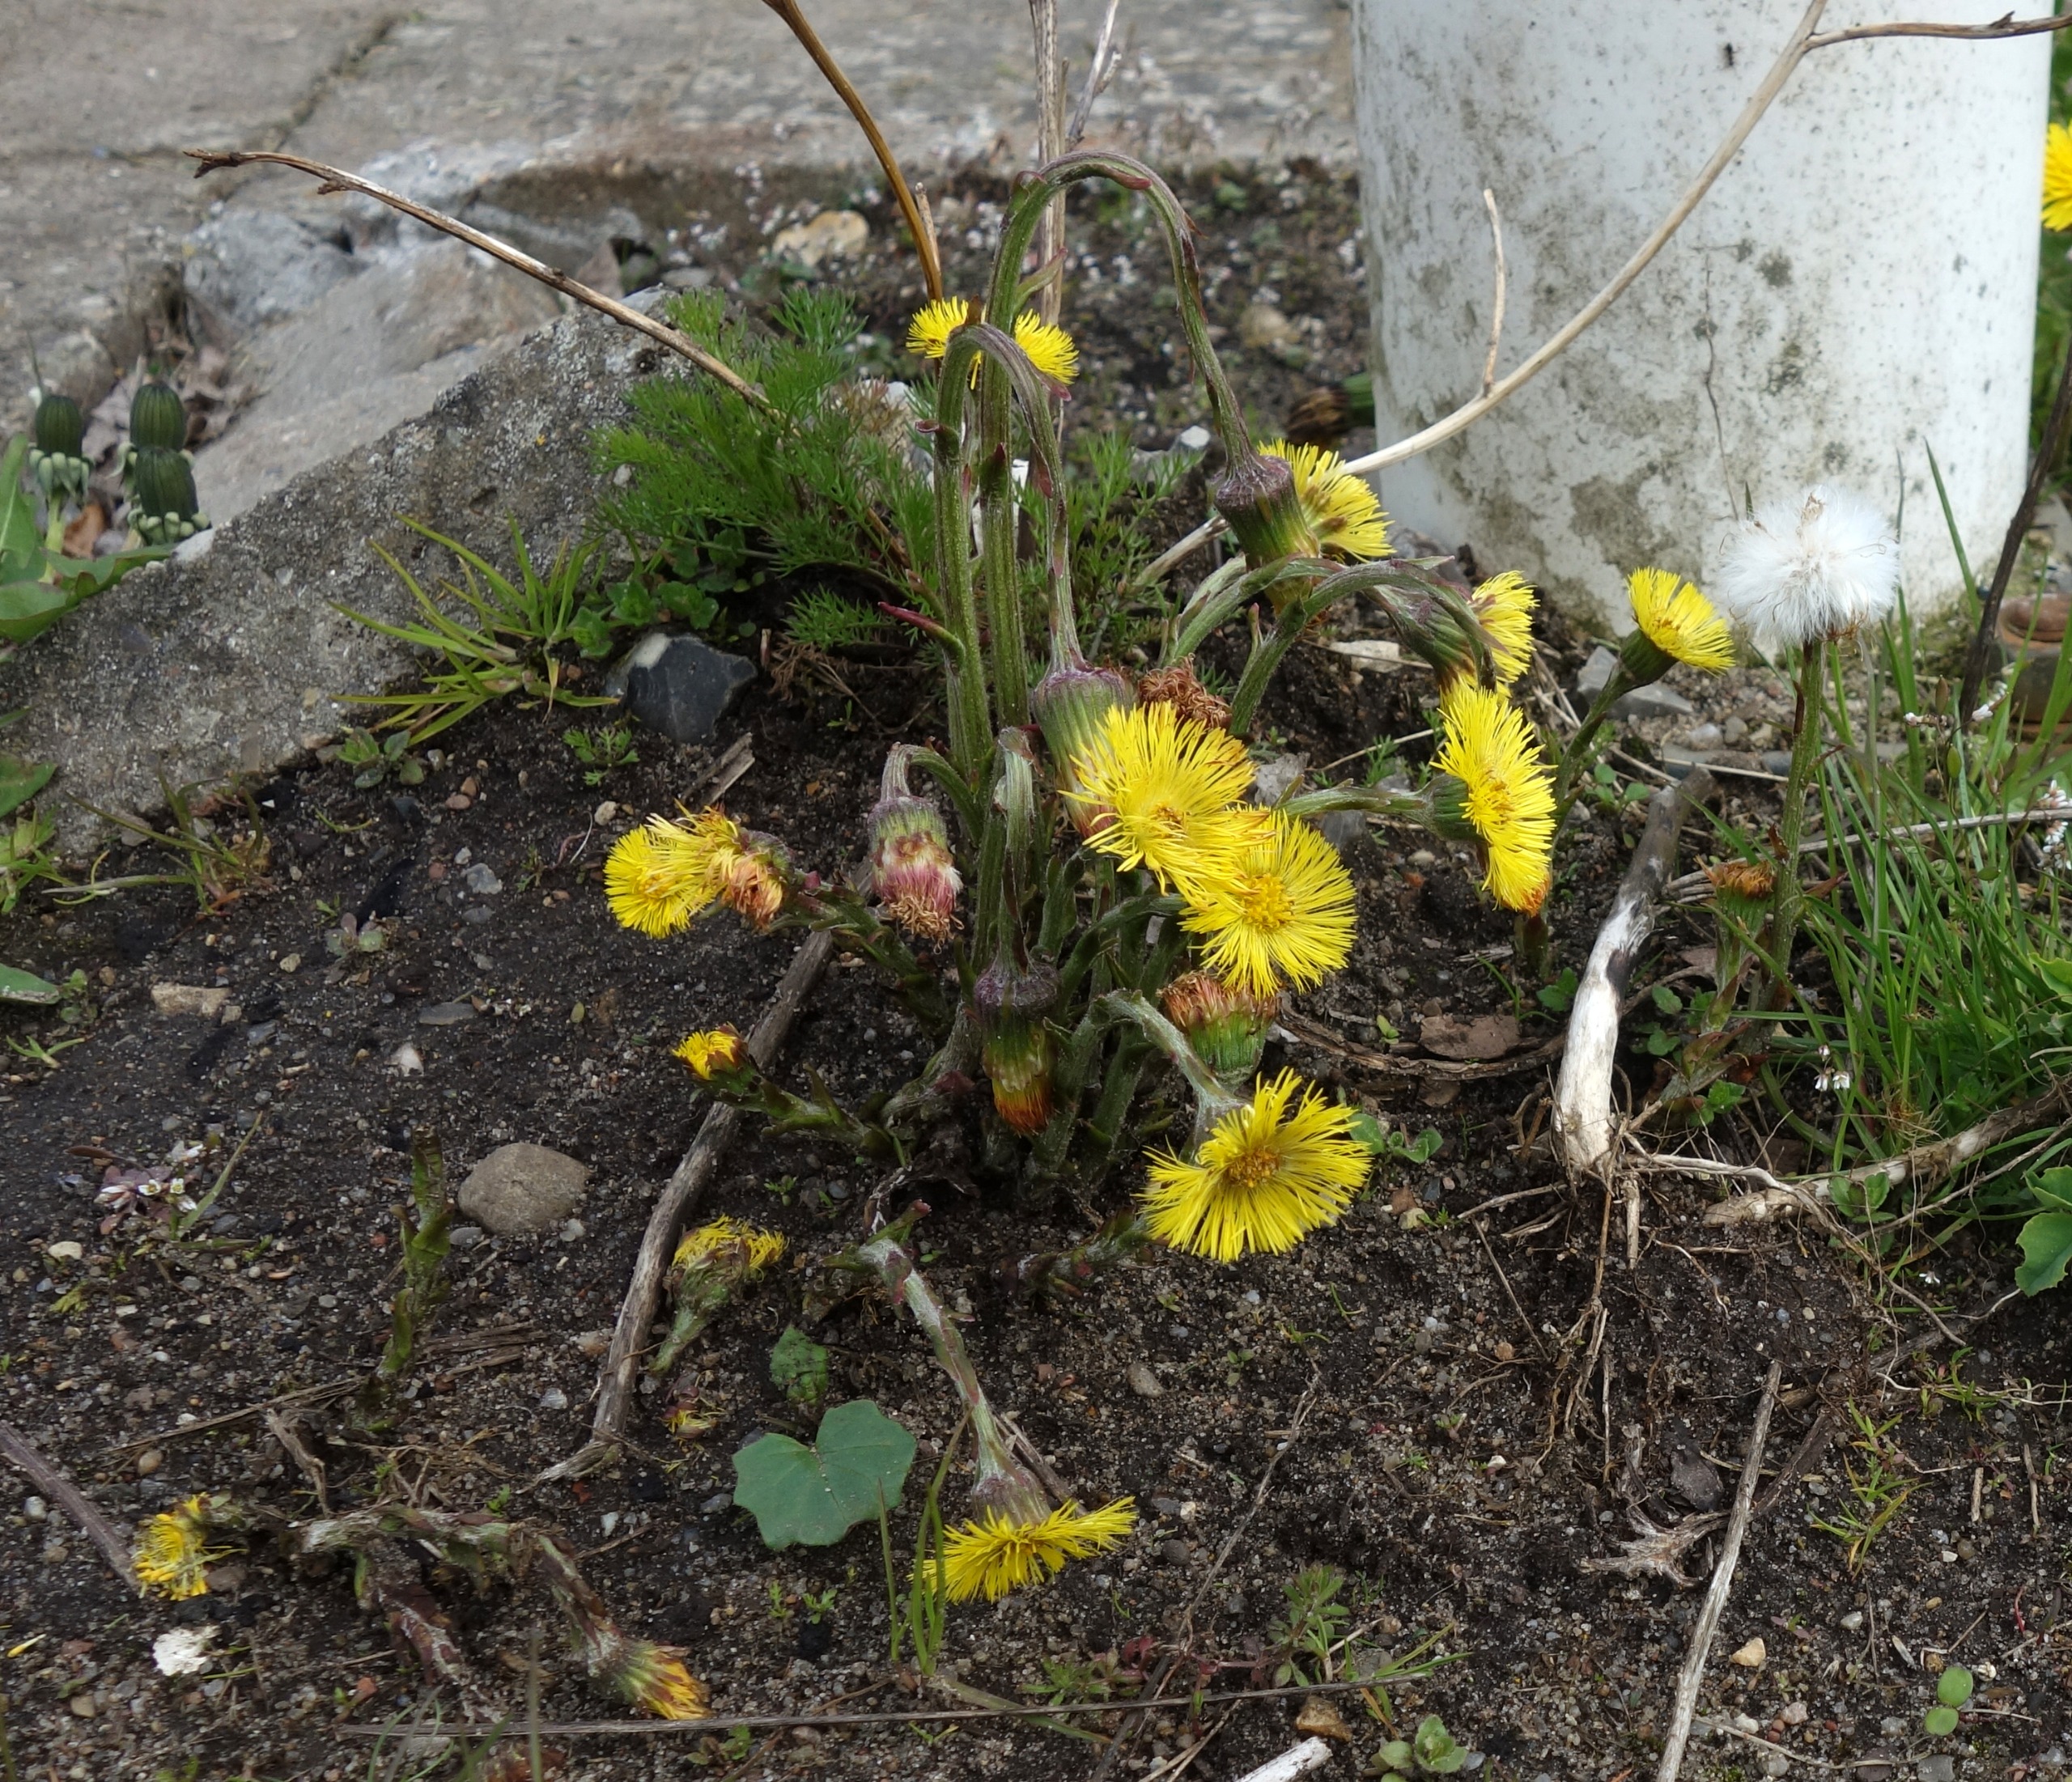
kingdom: Plantae
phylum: Tracheophyta
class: Magnoliopsida
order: Asterales
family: Asteraceae
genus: Tussilago
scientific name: Tussilago farfara
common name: Følfod
